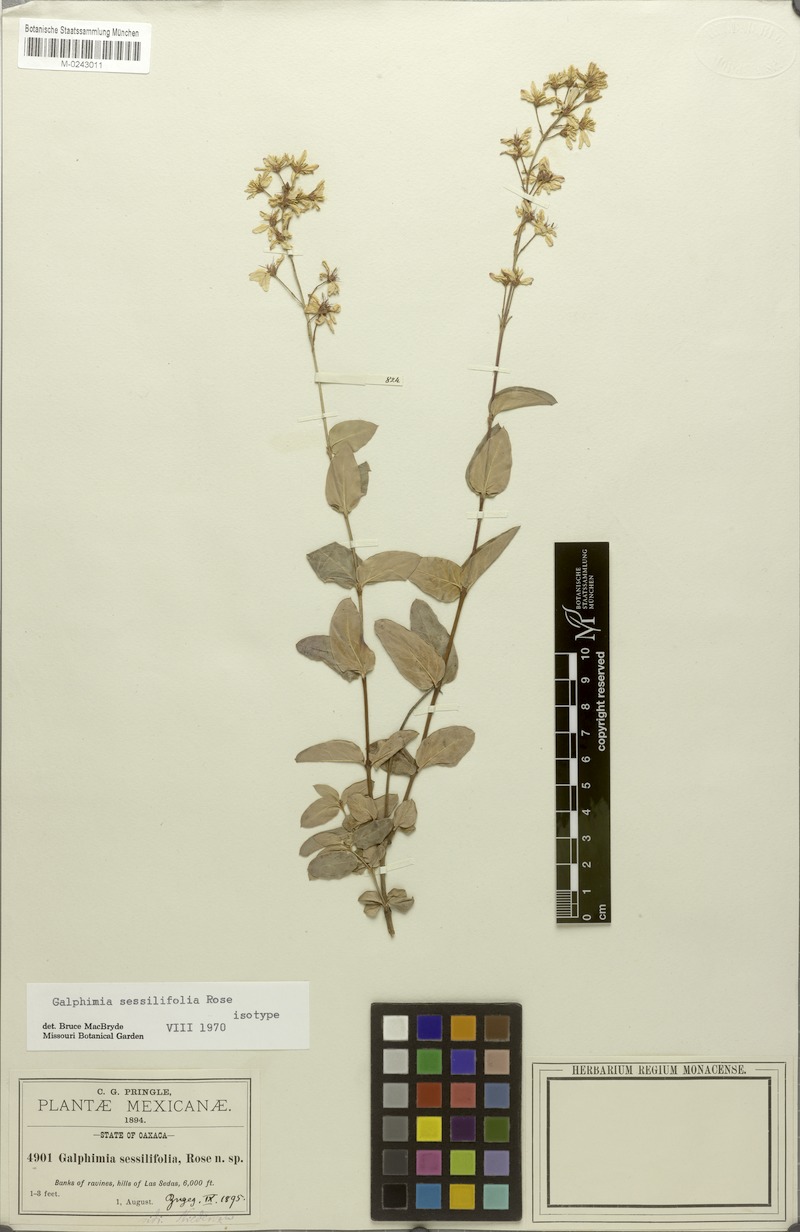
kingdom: Plantae
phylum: Tracheophyta
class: Magnoliopsida
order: Malpighiales
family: Malpighiaceae
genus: Galphimia
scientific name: Galphimia sessilifolia
